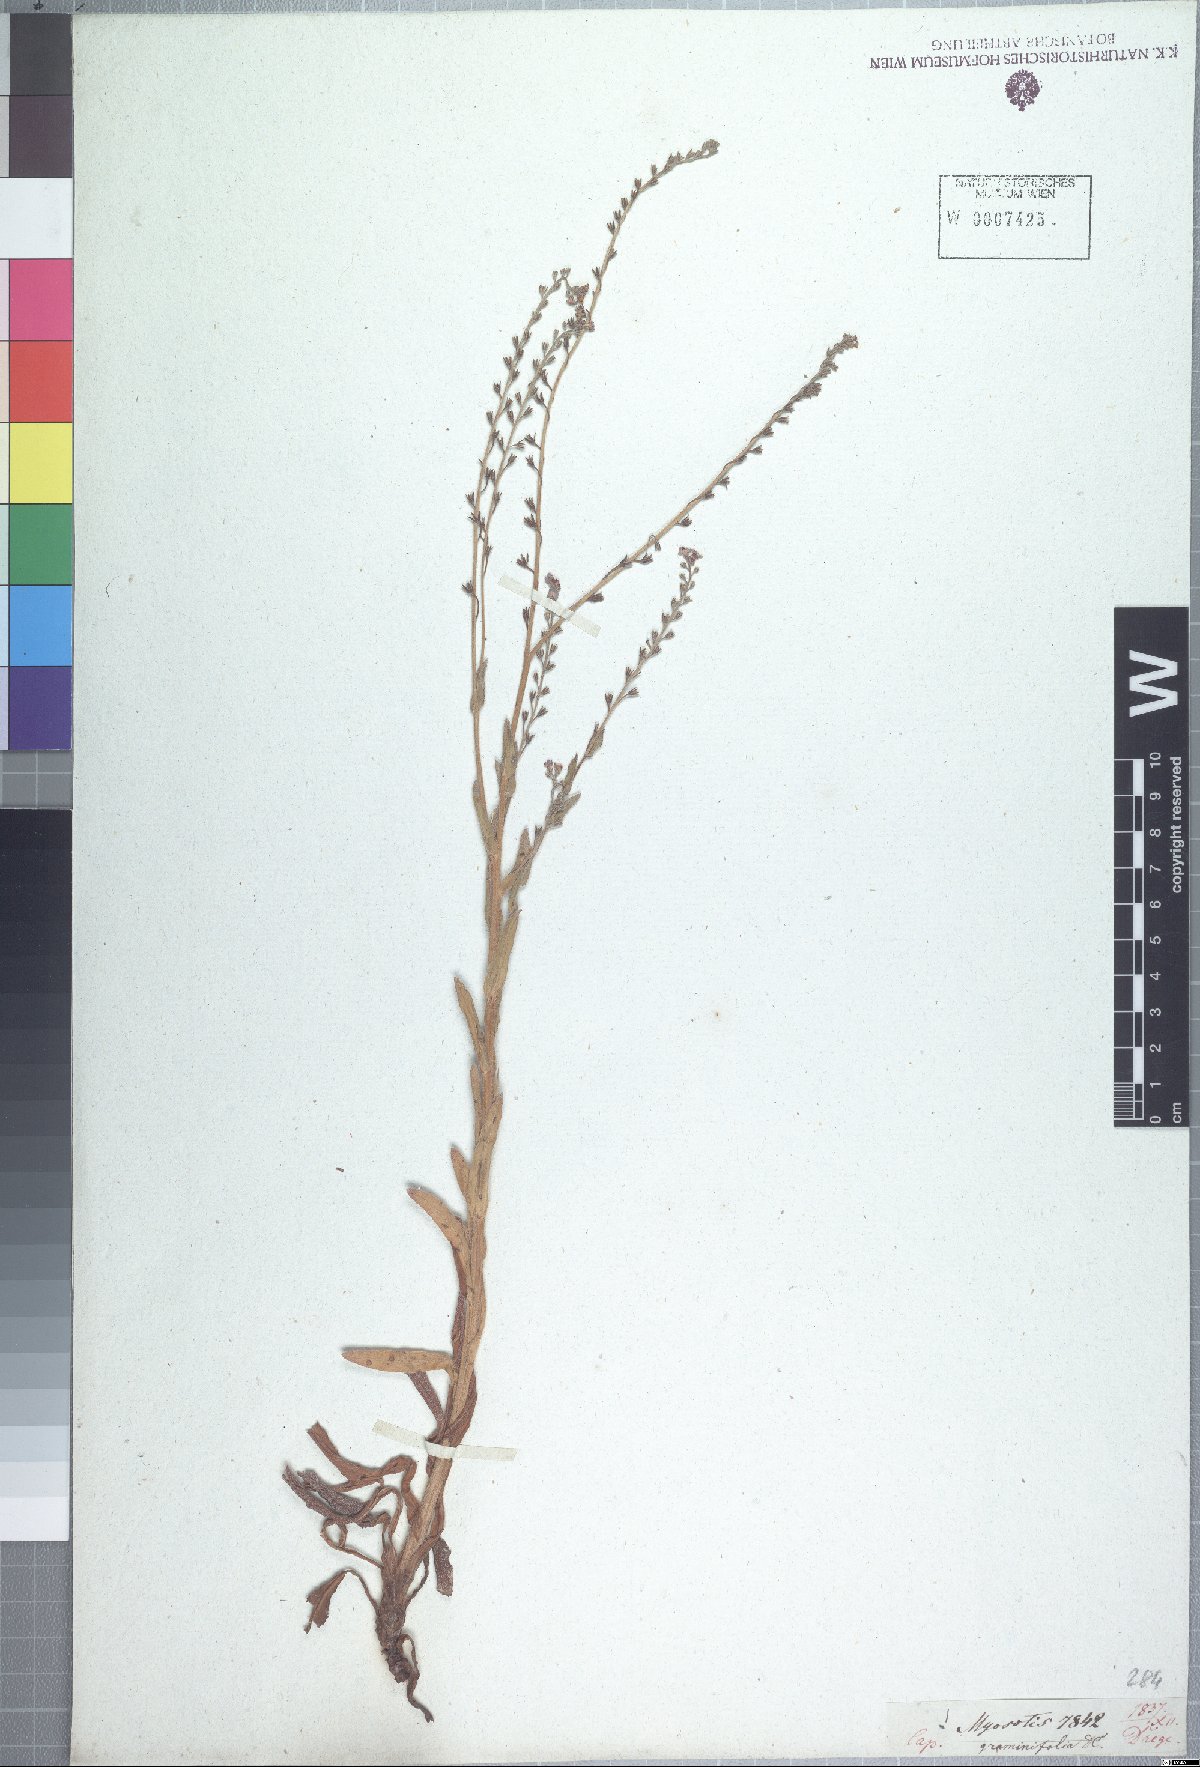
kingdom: Plantae
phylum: Tracheophyta
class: Magnoliopsida
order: Boraginales
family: Boraginaceae
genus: Myosotis
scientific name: Myosotis graminifolia
